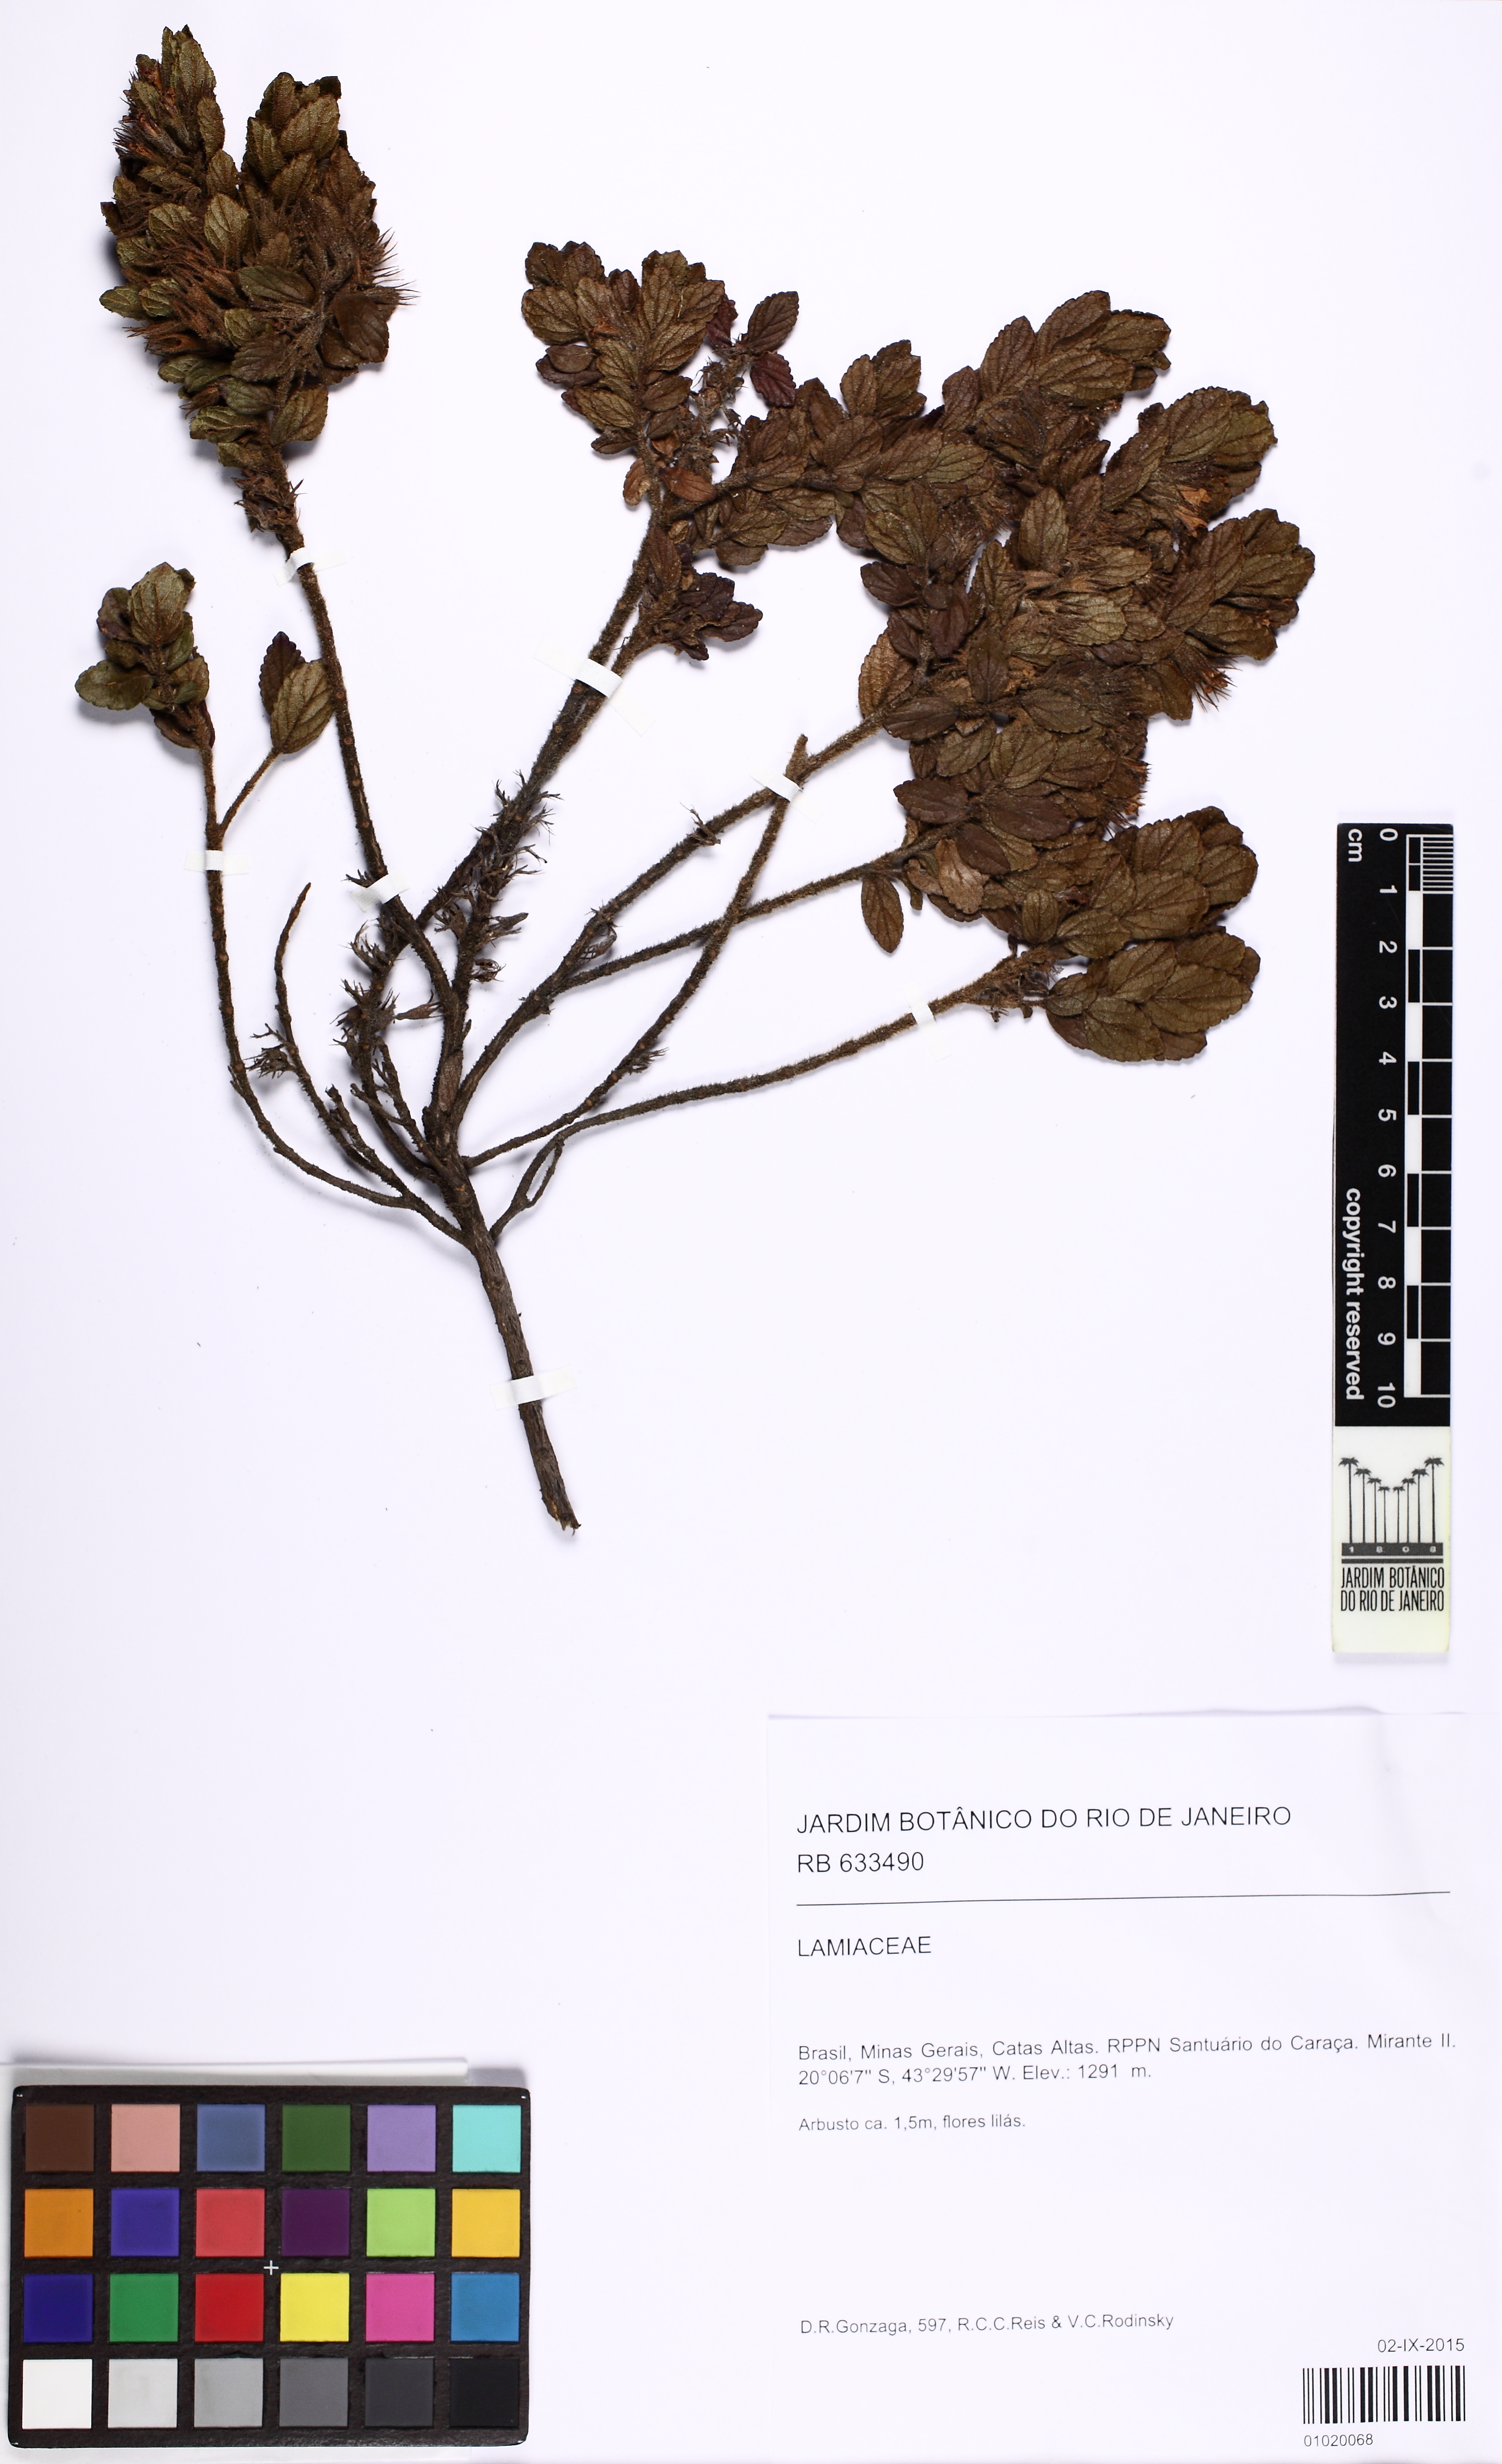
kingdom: Plantae
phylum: Tracheophyta
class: Magnoliopsida
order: Lamiales
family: Lamiaceae
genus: Hyptidendron
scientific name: Hyptidendron claussenii
